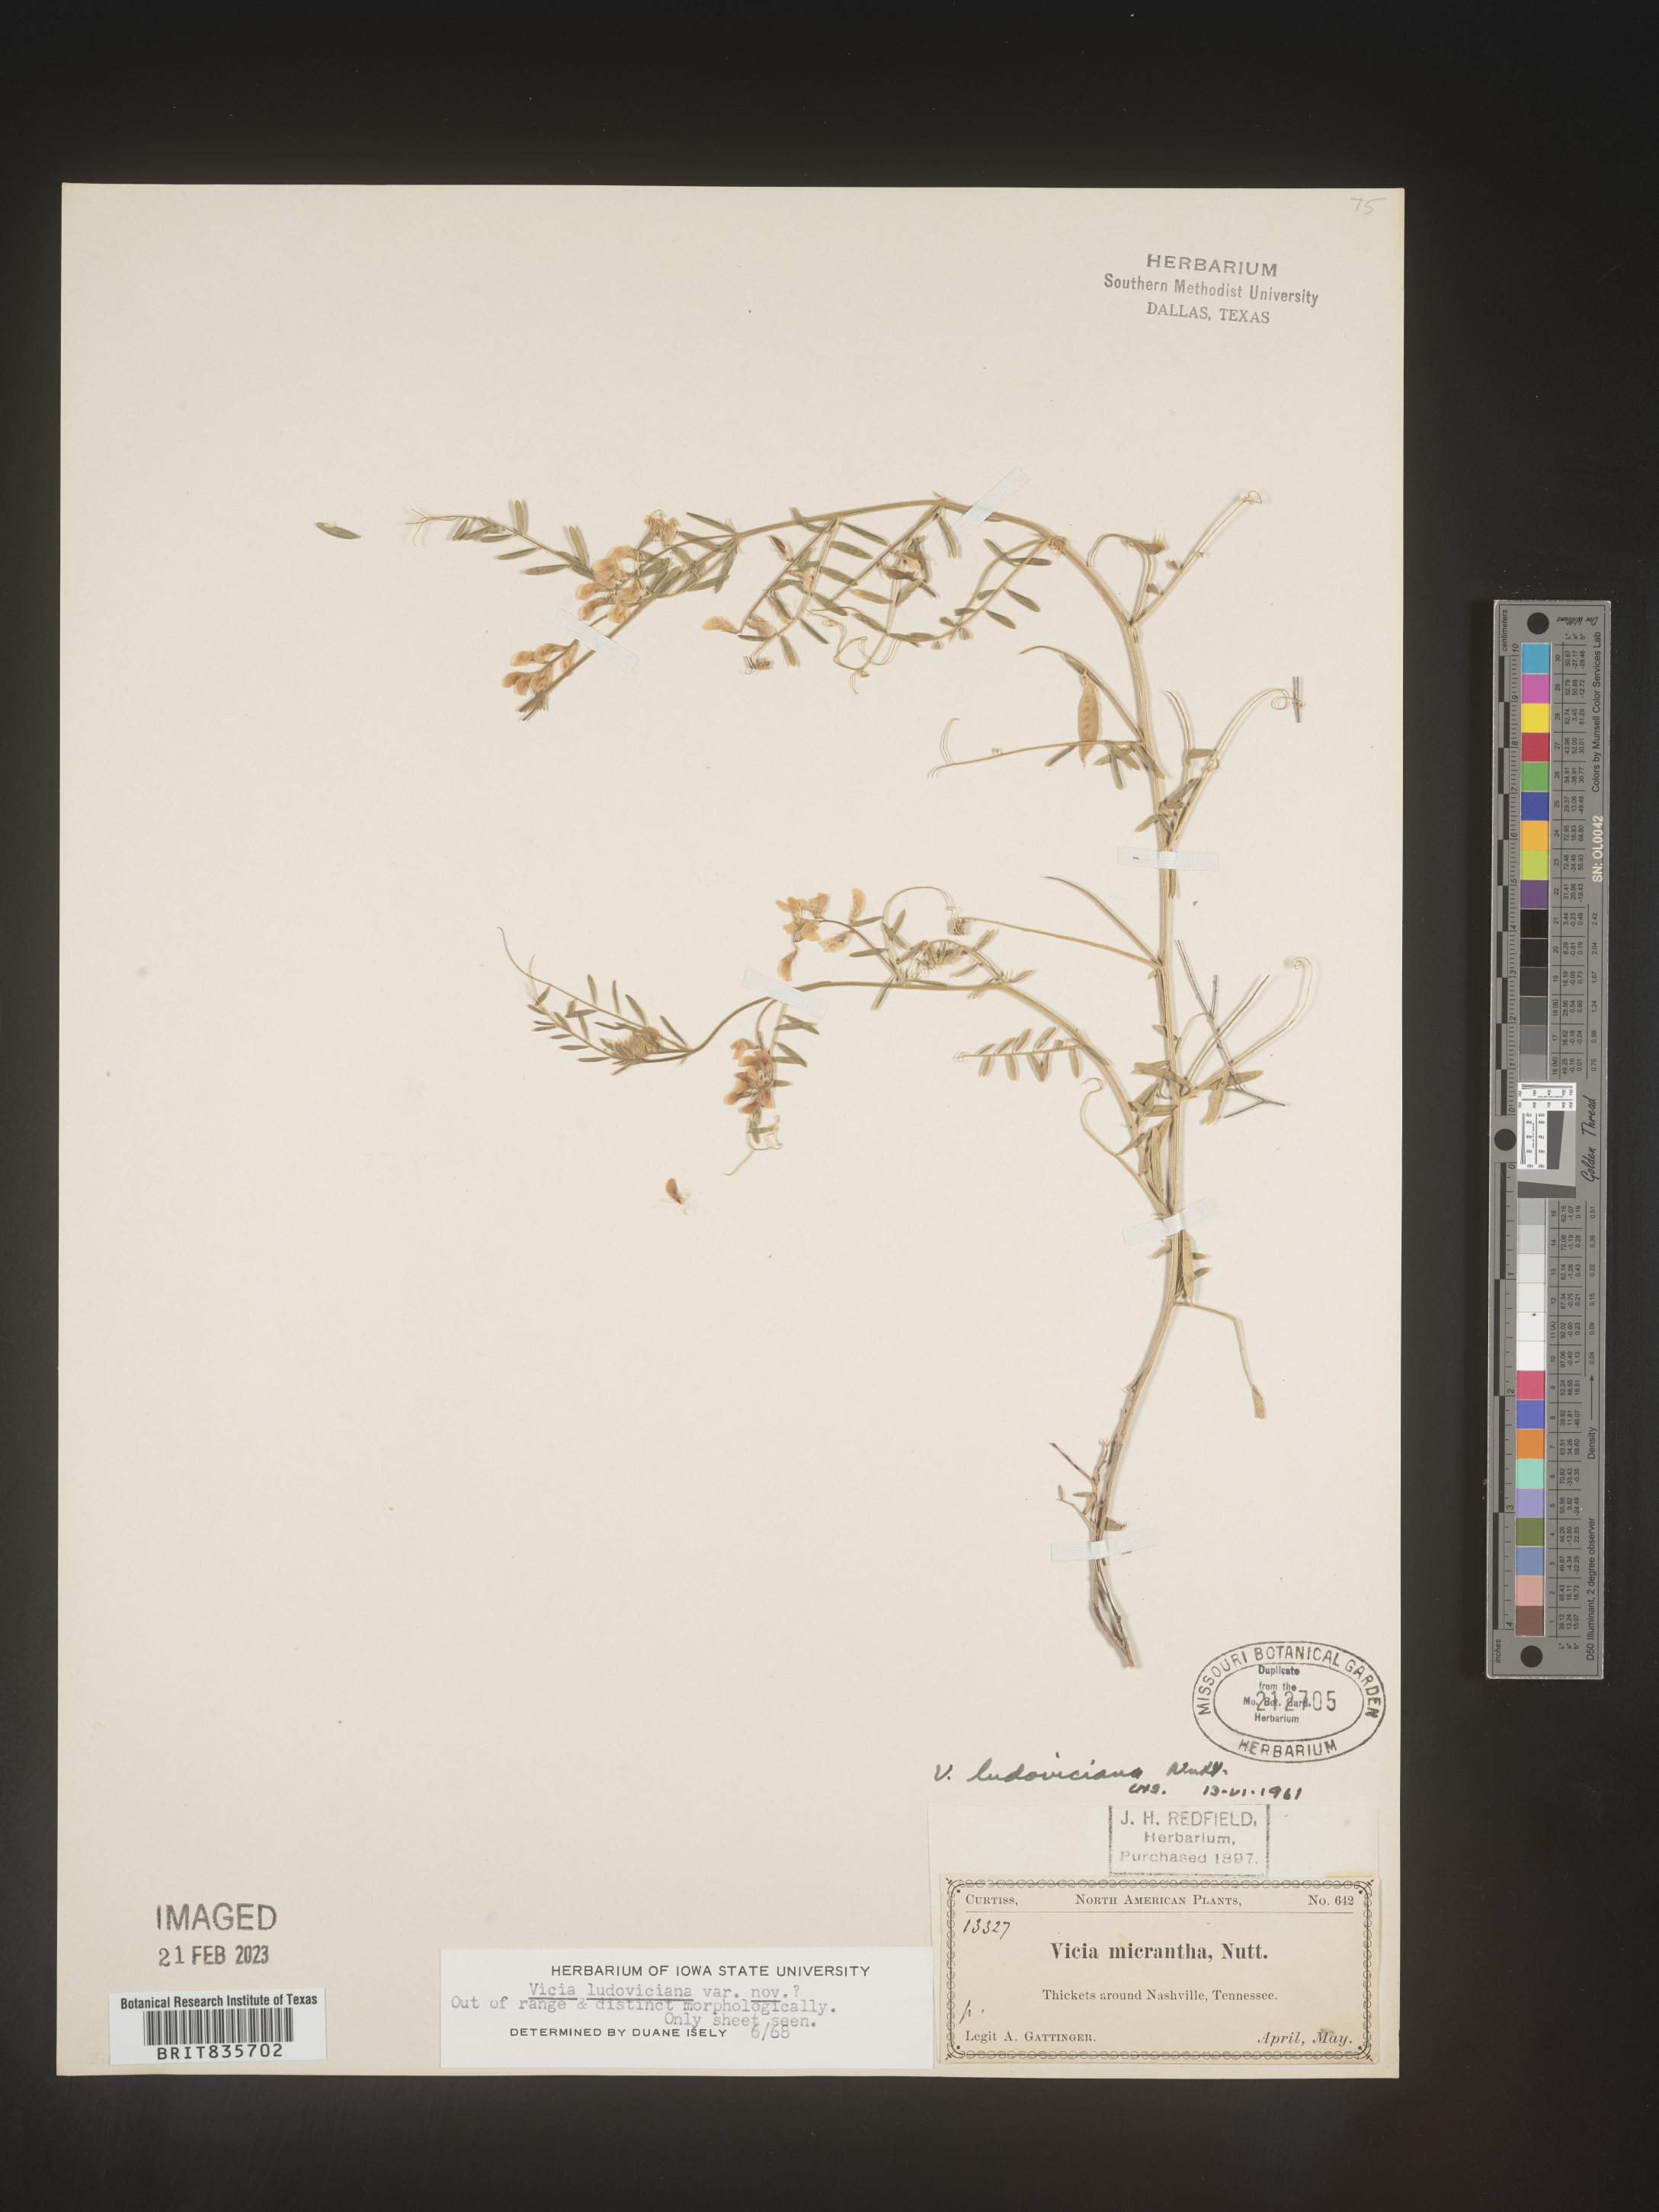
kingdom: Plantae
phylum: Tracheophyta
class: Magnoliopsida
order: Fabales
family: Fabaceae
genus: Vicia
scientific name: Vicia ludoviciana
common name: Louisiana vetch
